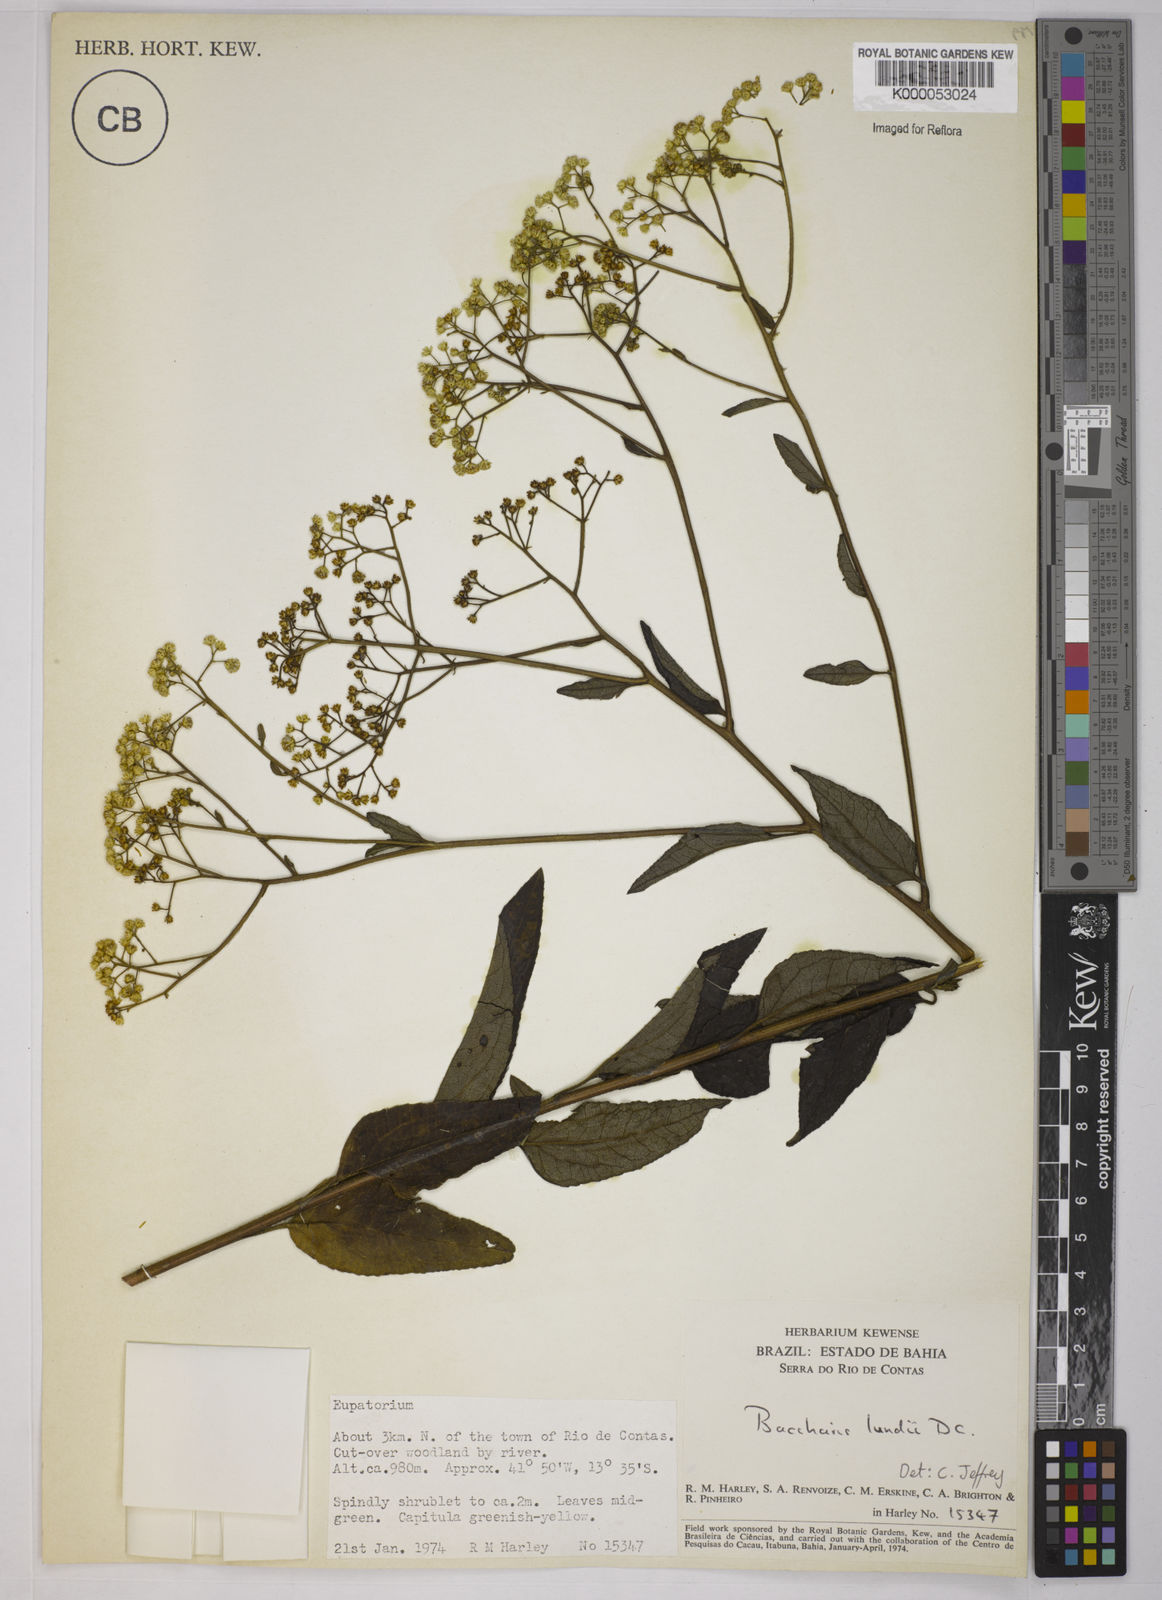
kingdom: Plantae
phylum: Tracheophyta
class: Magnoliopsida
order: Asterales
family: Asteraceae
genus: Baccharis
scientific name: Baccharis serrulata
